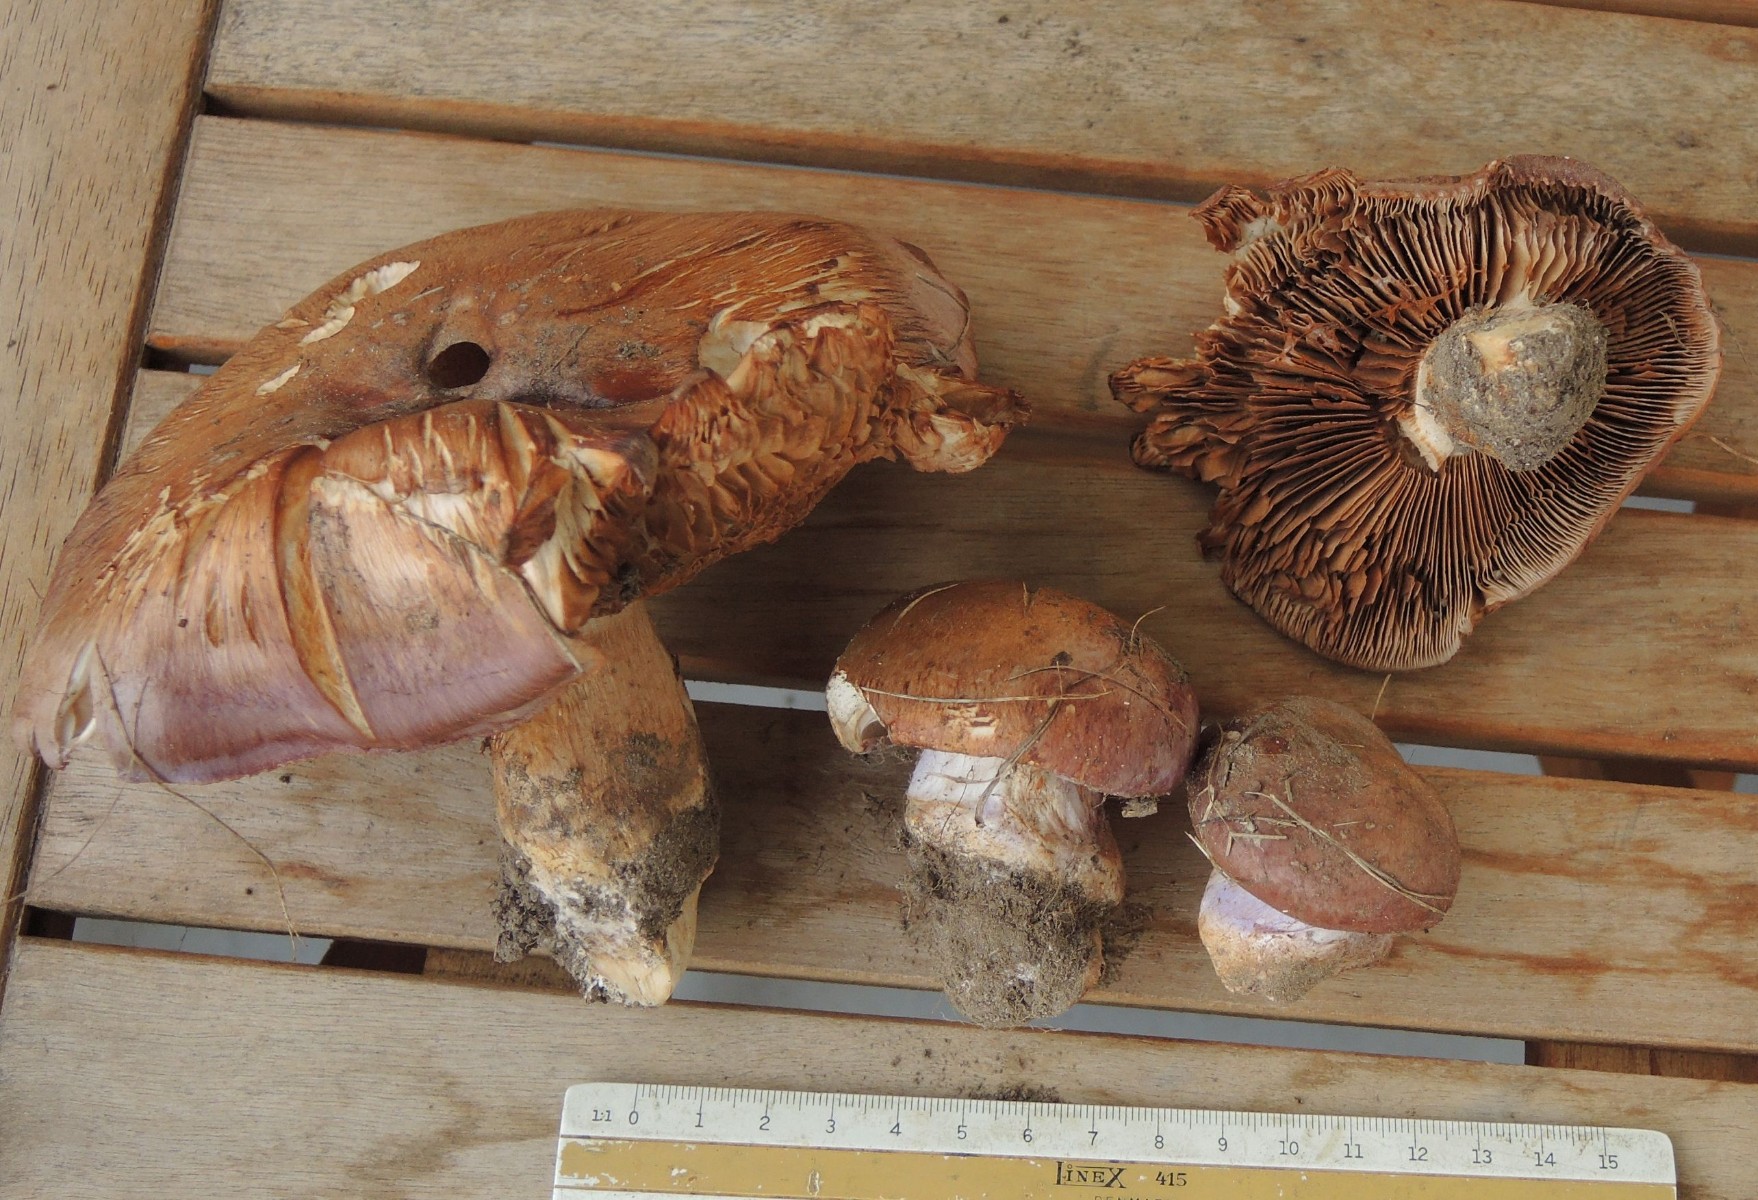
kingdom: Fungi
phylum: Basidiomycota
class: Agaricomycetes
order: Agaricales
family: Cortinariaceae
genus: Phlegmacium
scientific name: Phlegmacium balteatocumatile
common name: violettrådet slørhat
